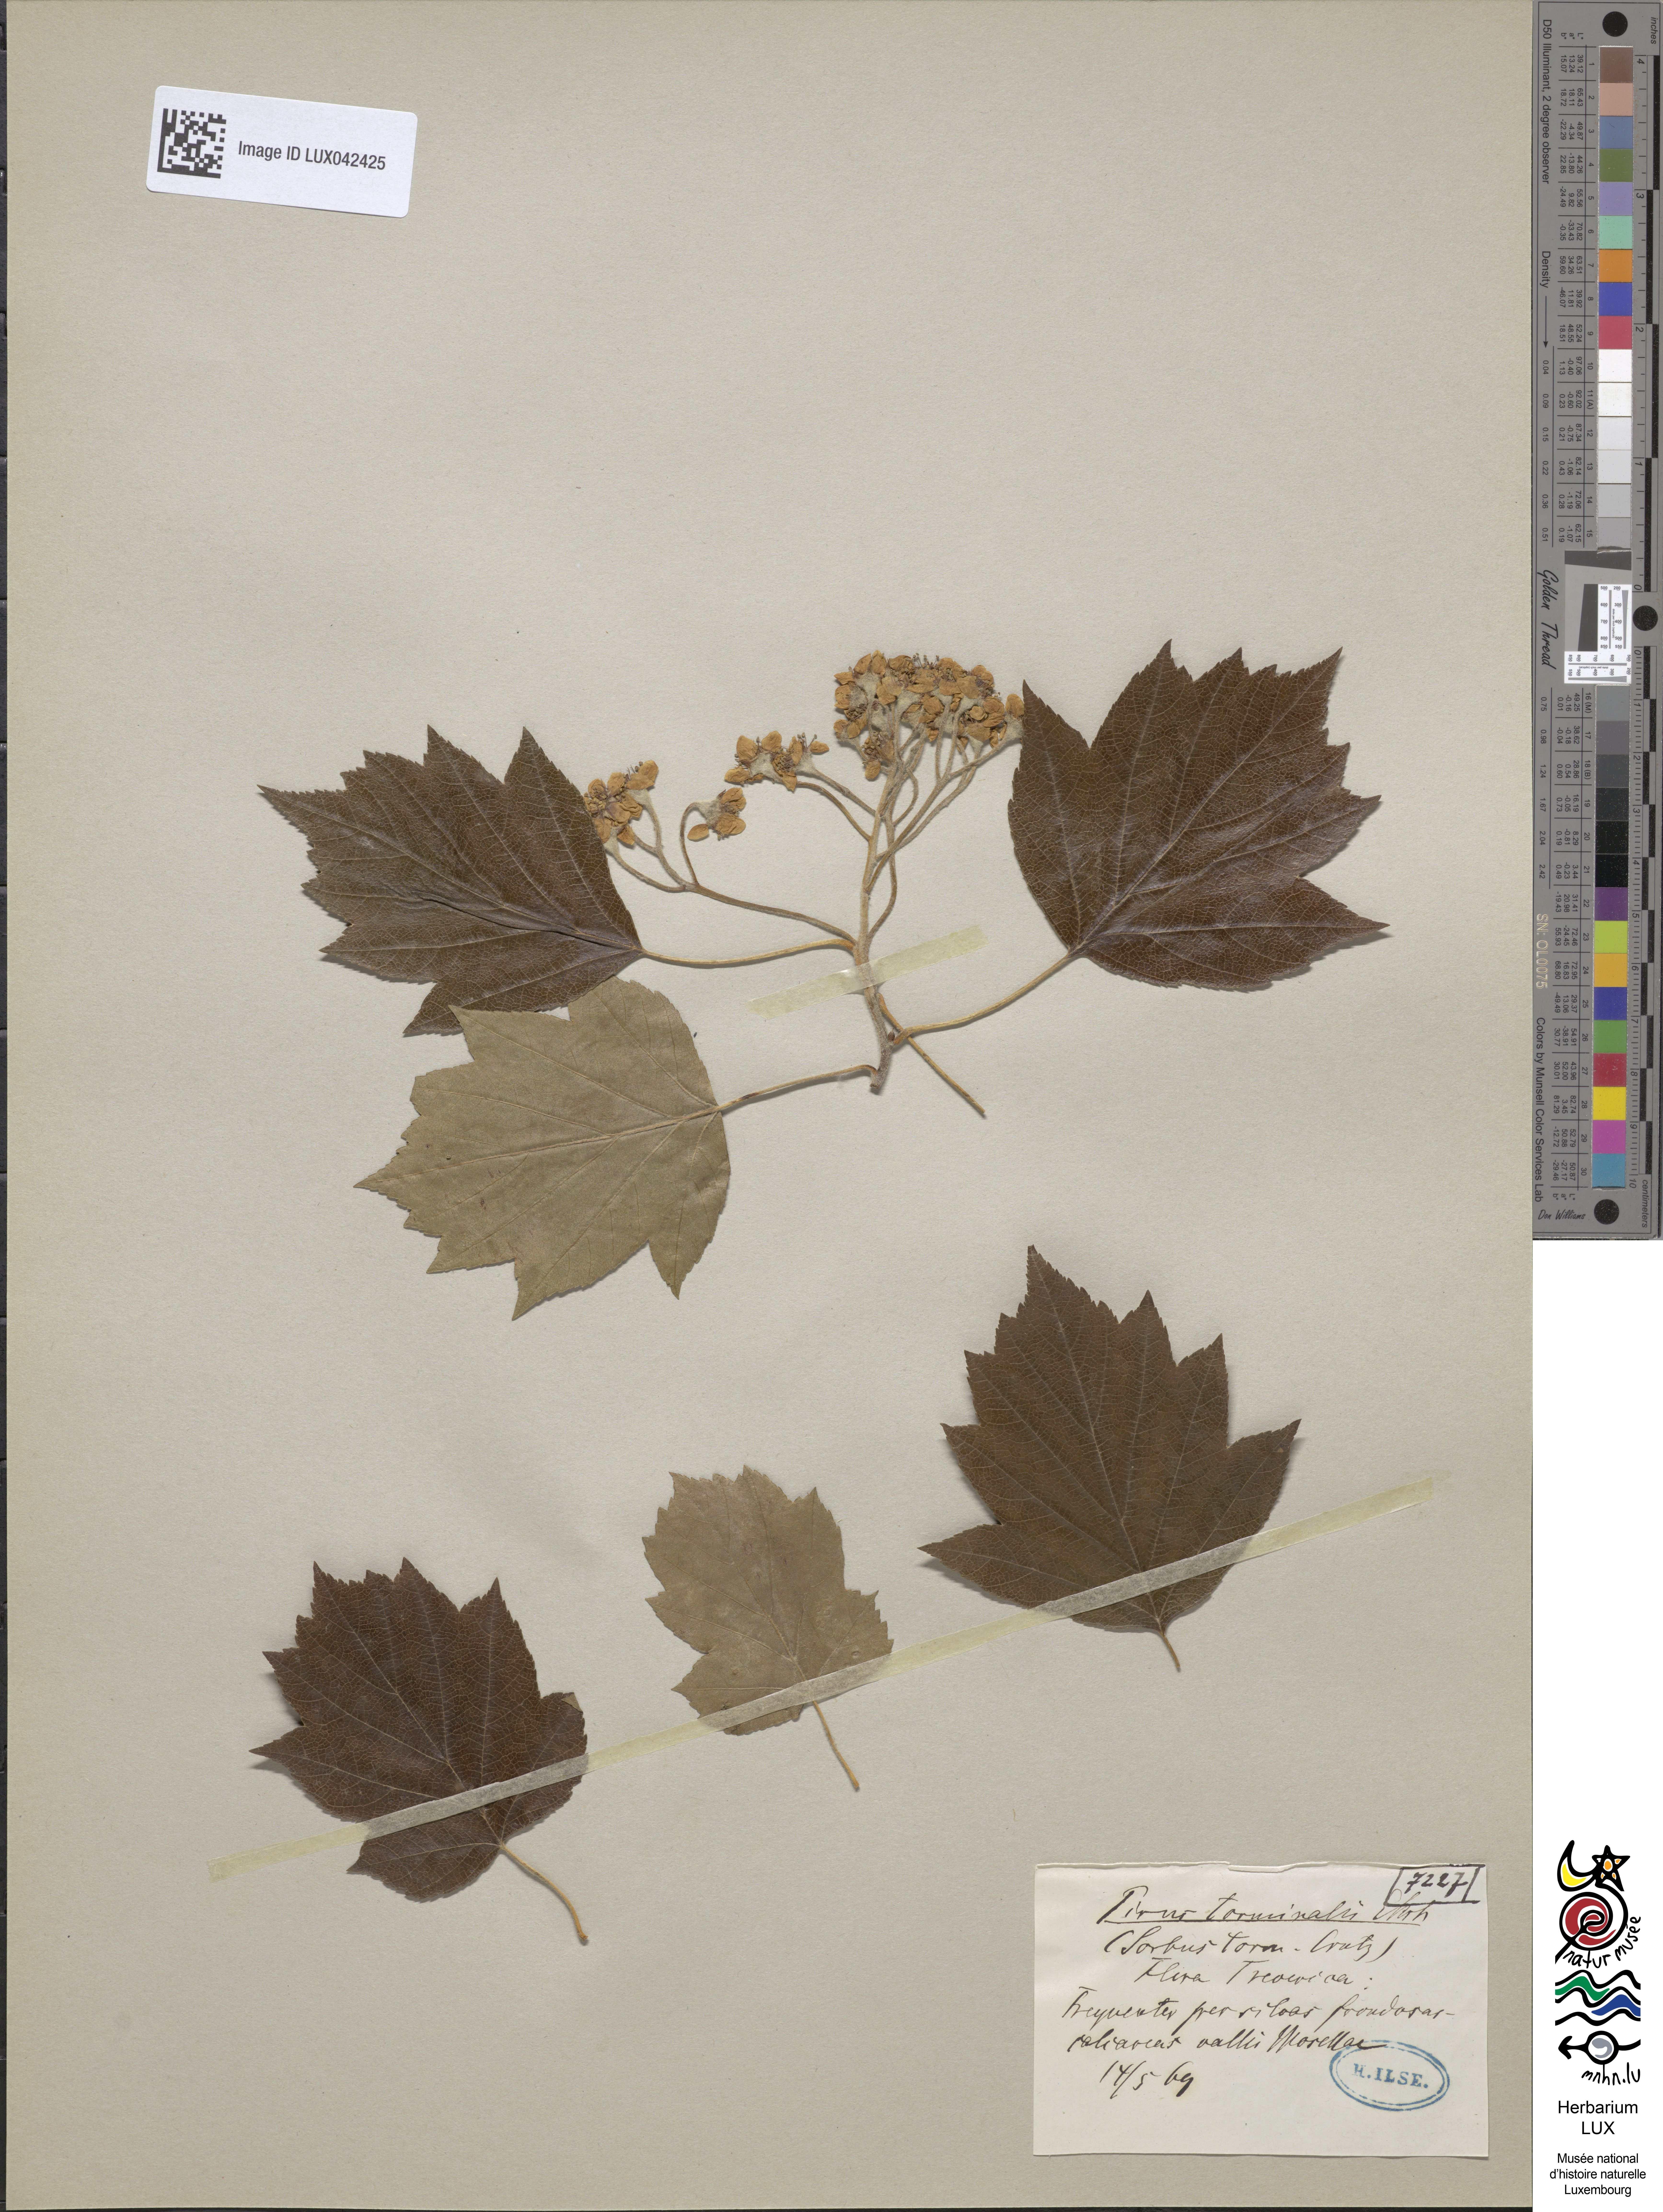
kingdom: Plantae
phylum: Tracheophyta
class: Magnoliopsida
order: Rosales
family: Rosaceae
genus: Torminalis
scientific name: Torminalis glaberrima
